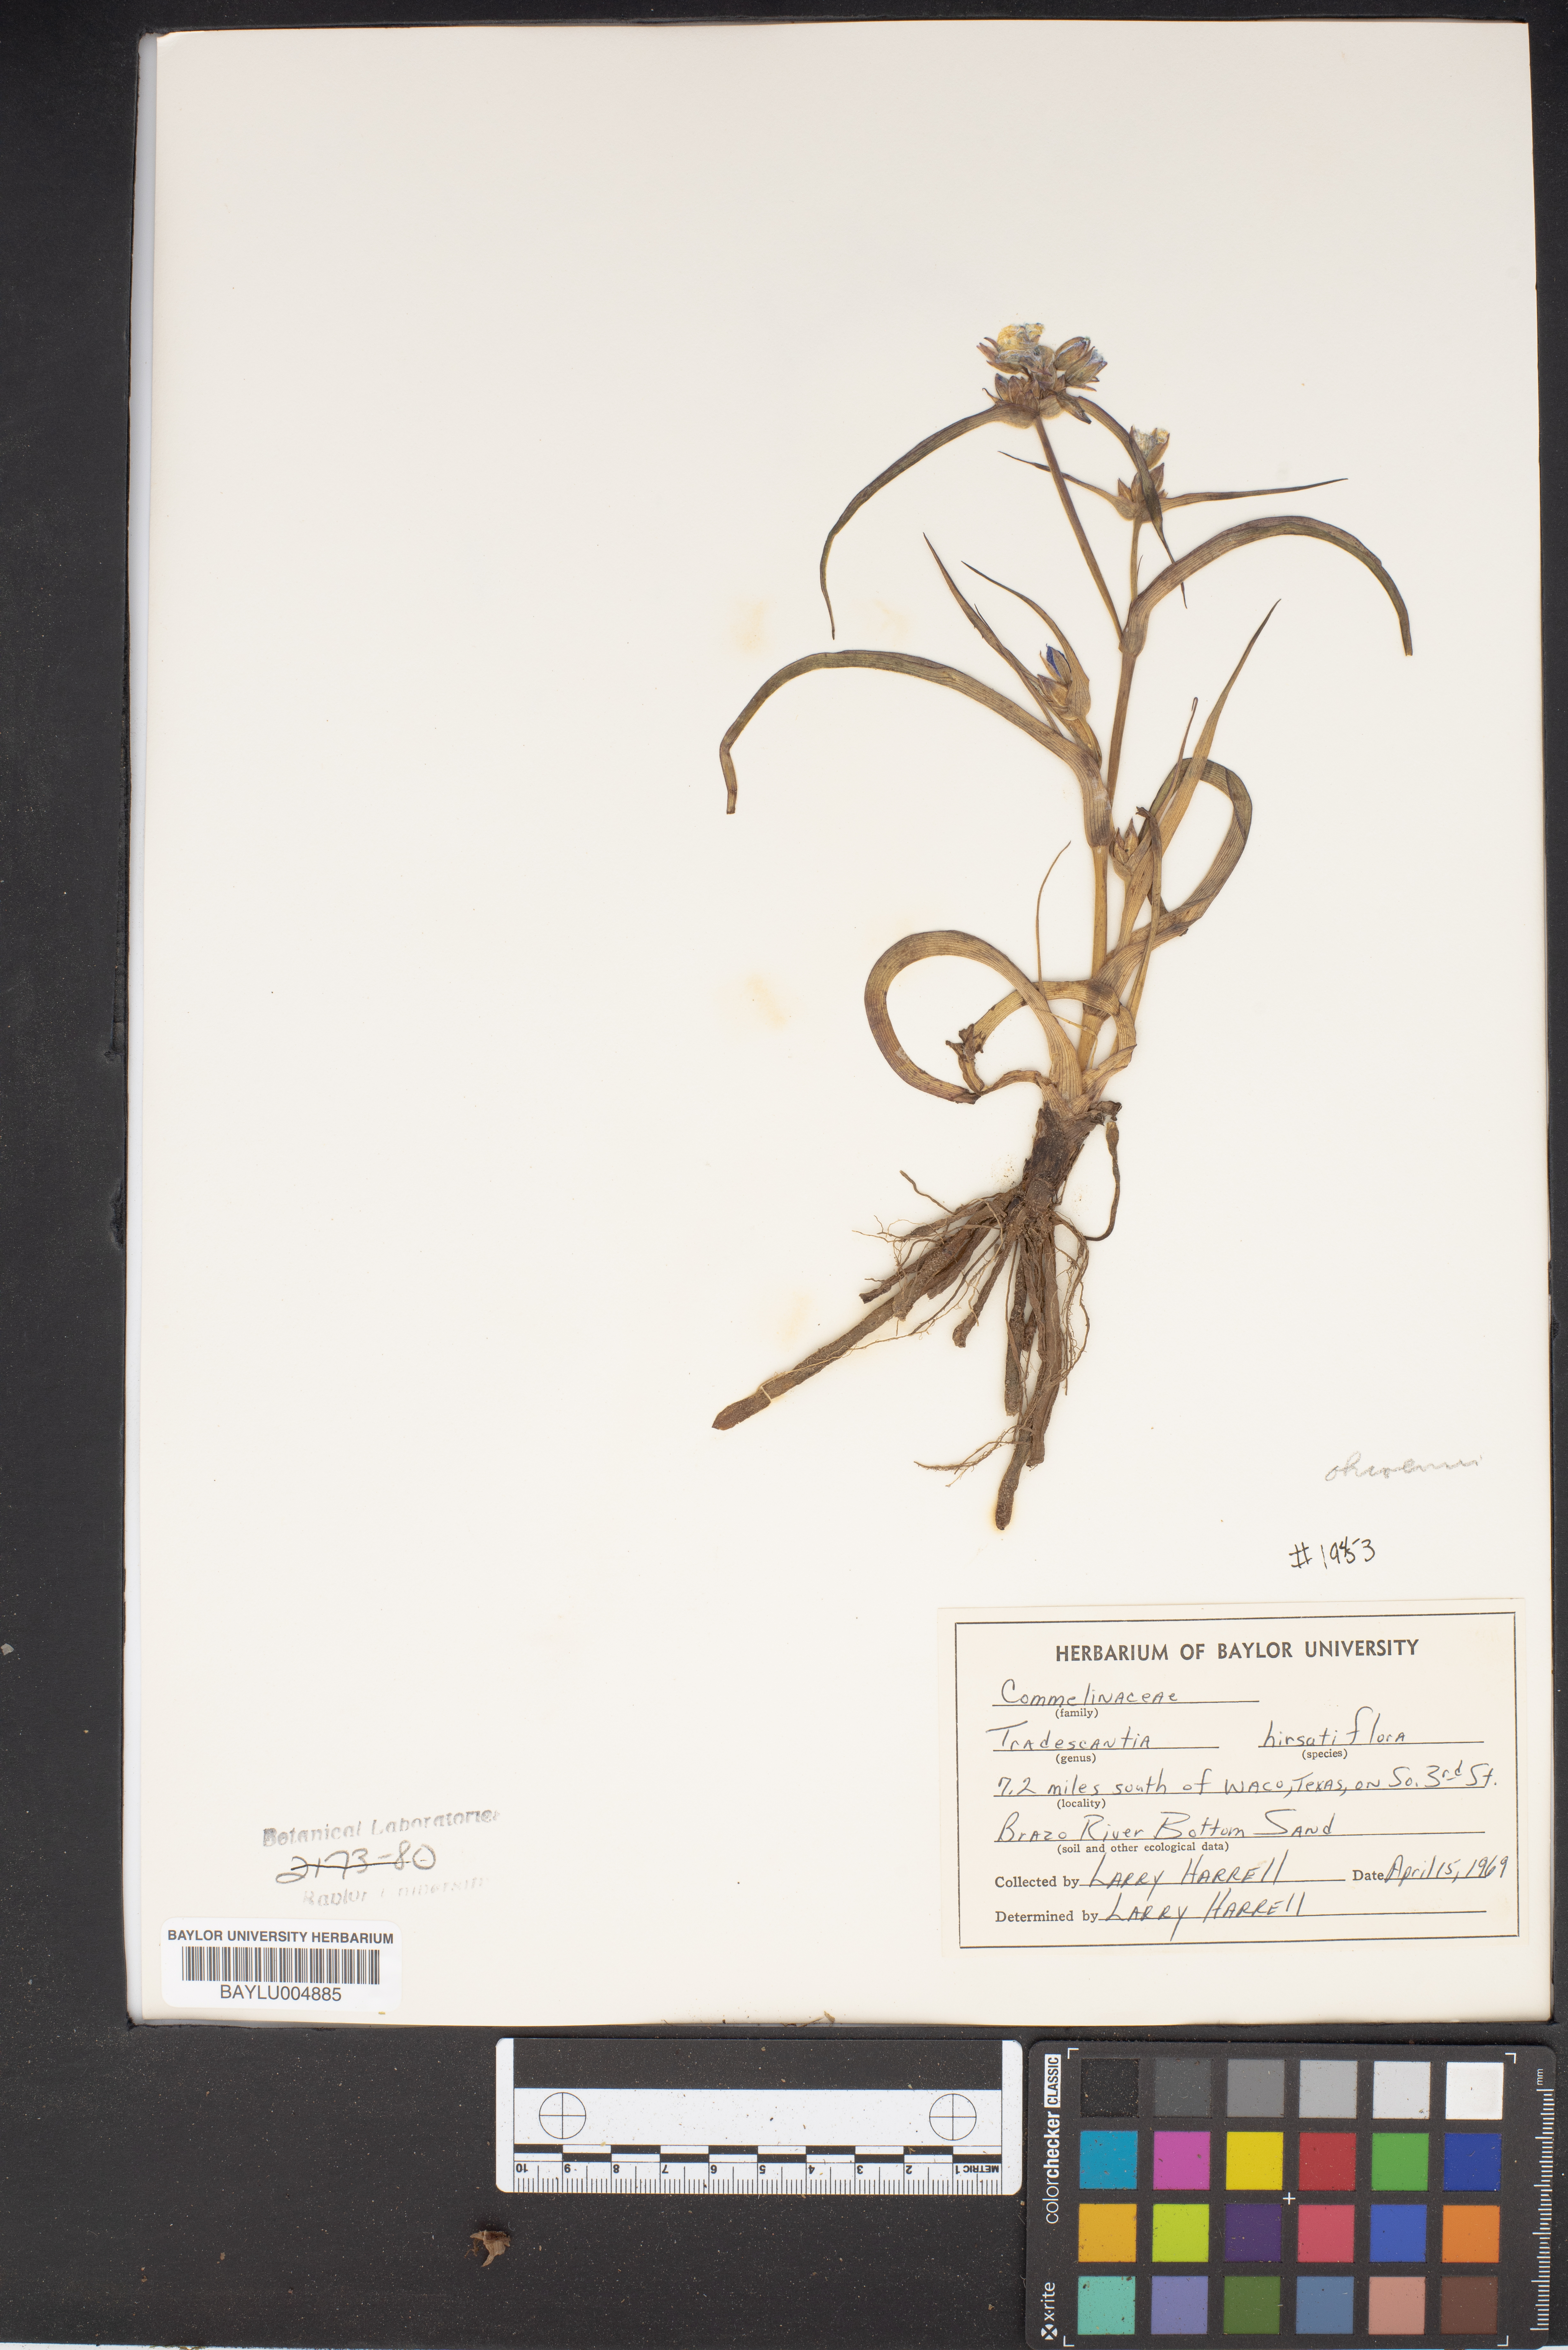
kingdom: Plantae
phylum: Tracheophyta
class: Liliopsida
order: Commelinales
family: Commelinaceae
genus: Tradescantia
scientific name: Tradescantia hirsutiflora
